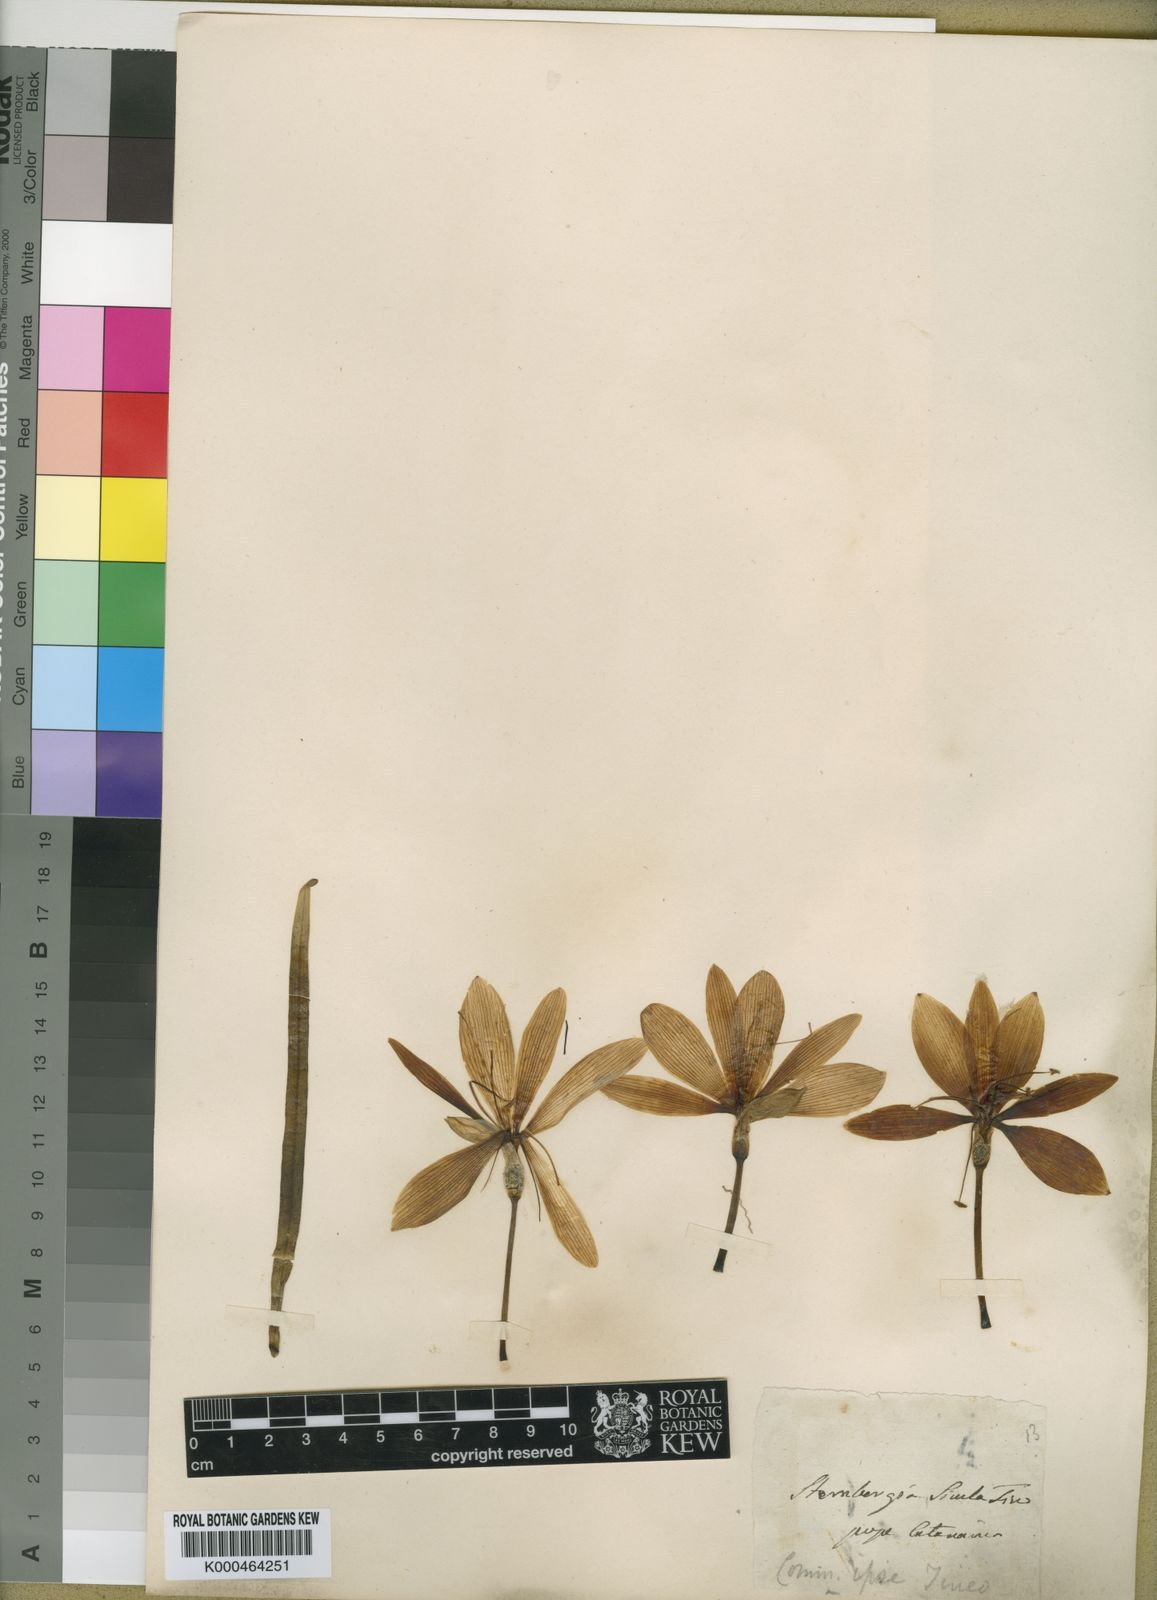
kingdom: Plantae
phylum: Tracheophyta
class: Liliopsida
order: Asparagales
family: Amaryllidaceae
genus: Sternbergia
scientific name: Sternbergia
